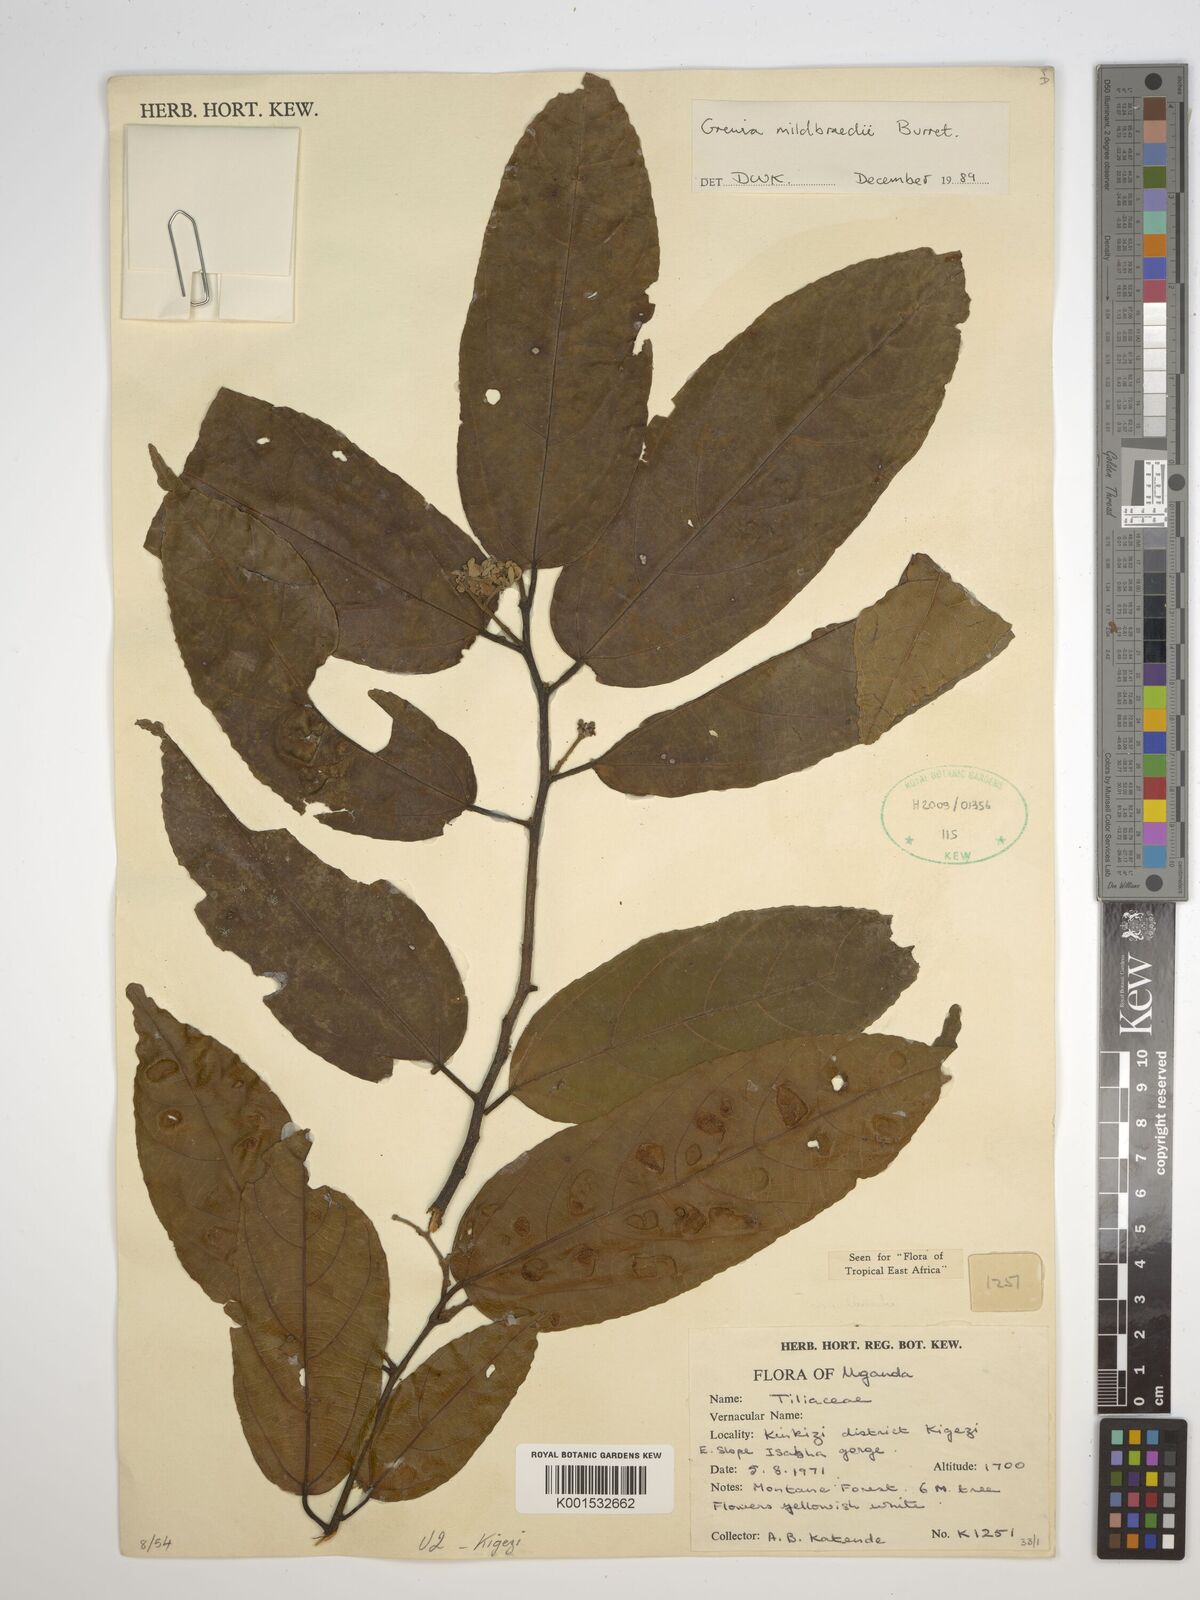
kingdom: Plantae
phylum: Tracheophyta
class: Magnoliopsida
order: Malvales
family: Malvaceae
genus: Microcos
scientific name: Microcos mildbraedii
